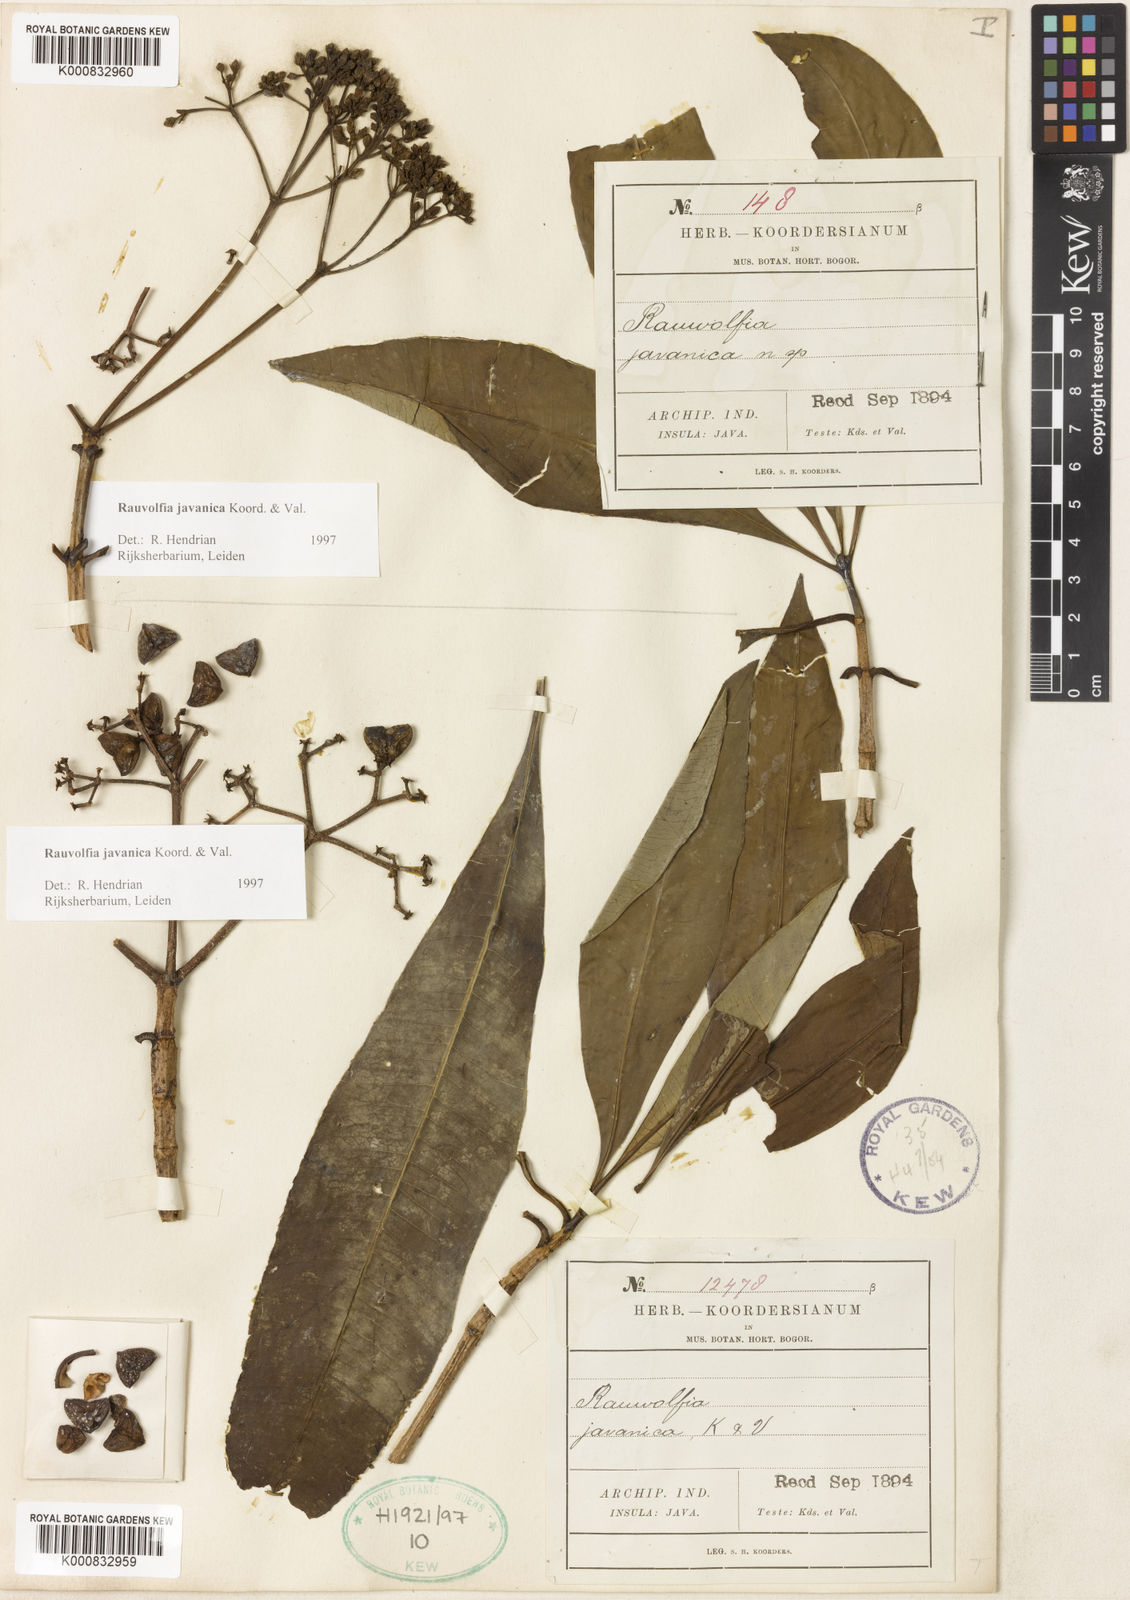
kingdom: Plantae
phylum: Tracheophyta
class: Magnoliopsida
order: Gentianales
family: Apocynaceae
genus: Rauvolfia
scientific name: Rauvolfia javanica
